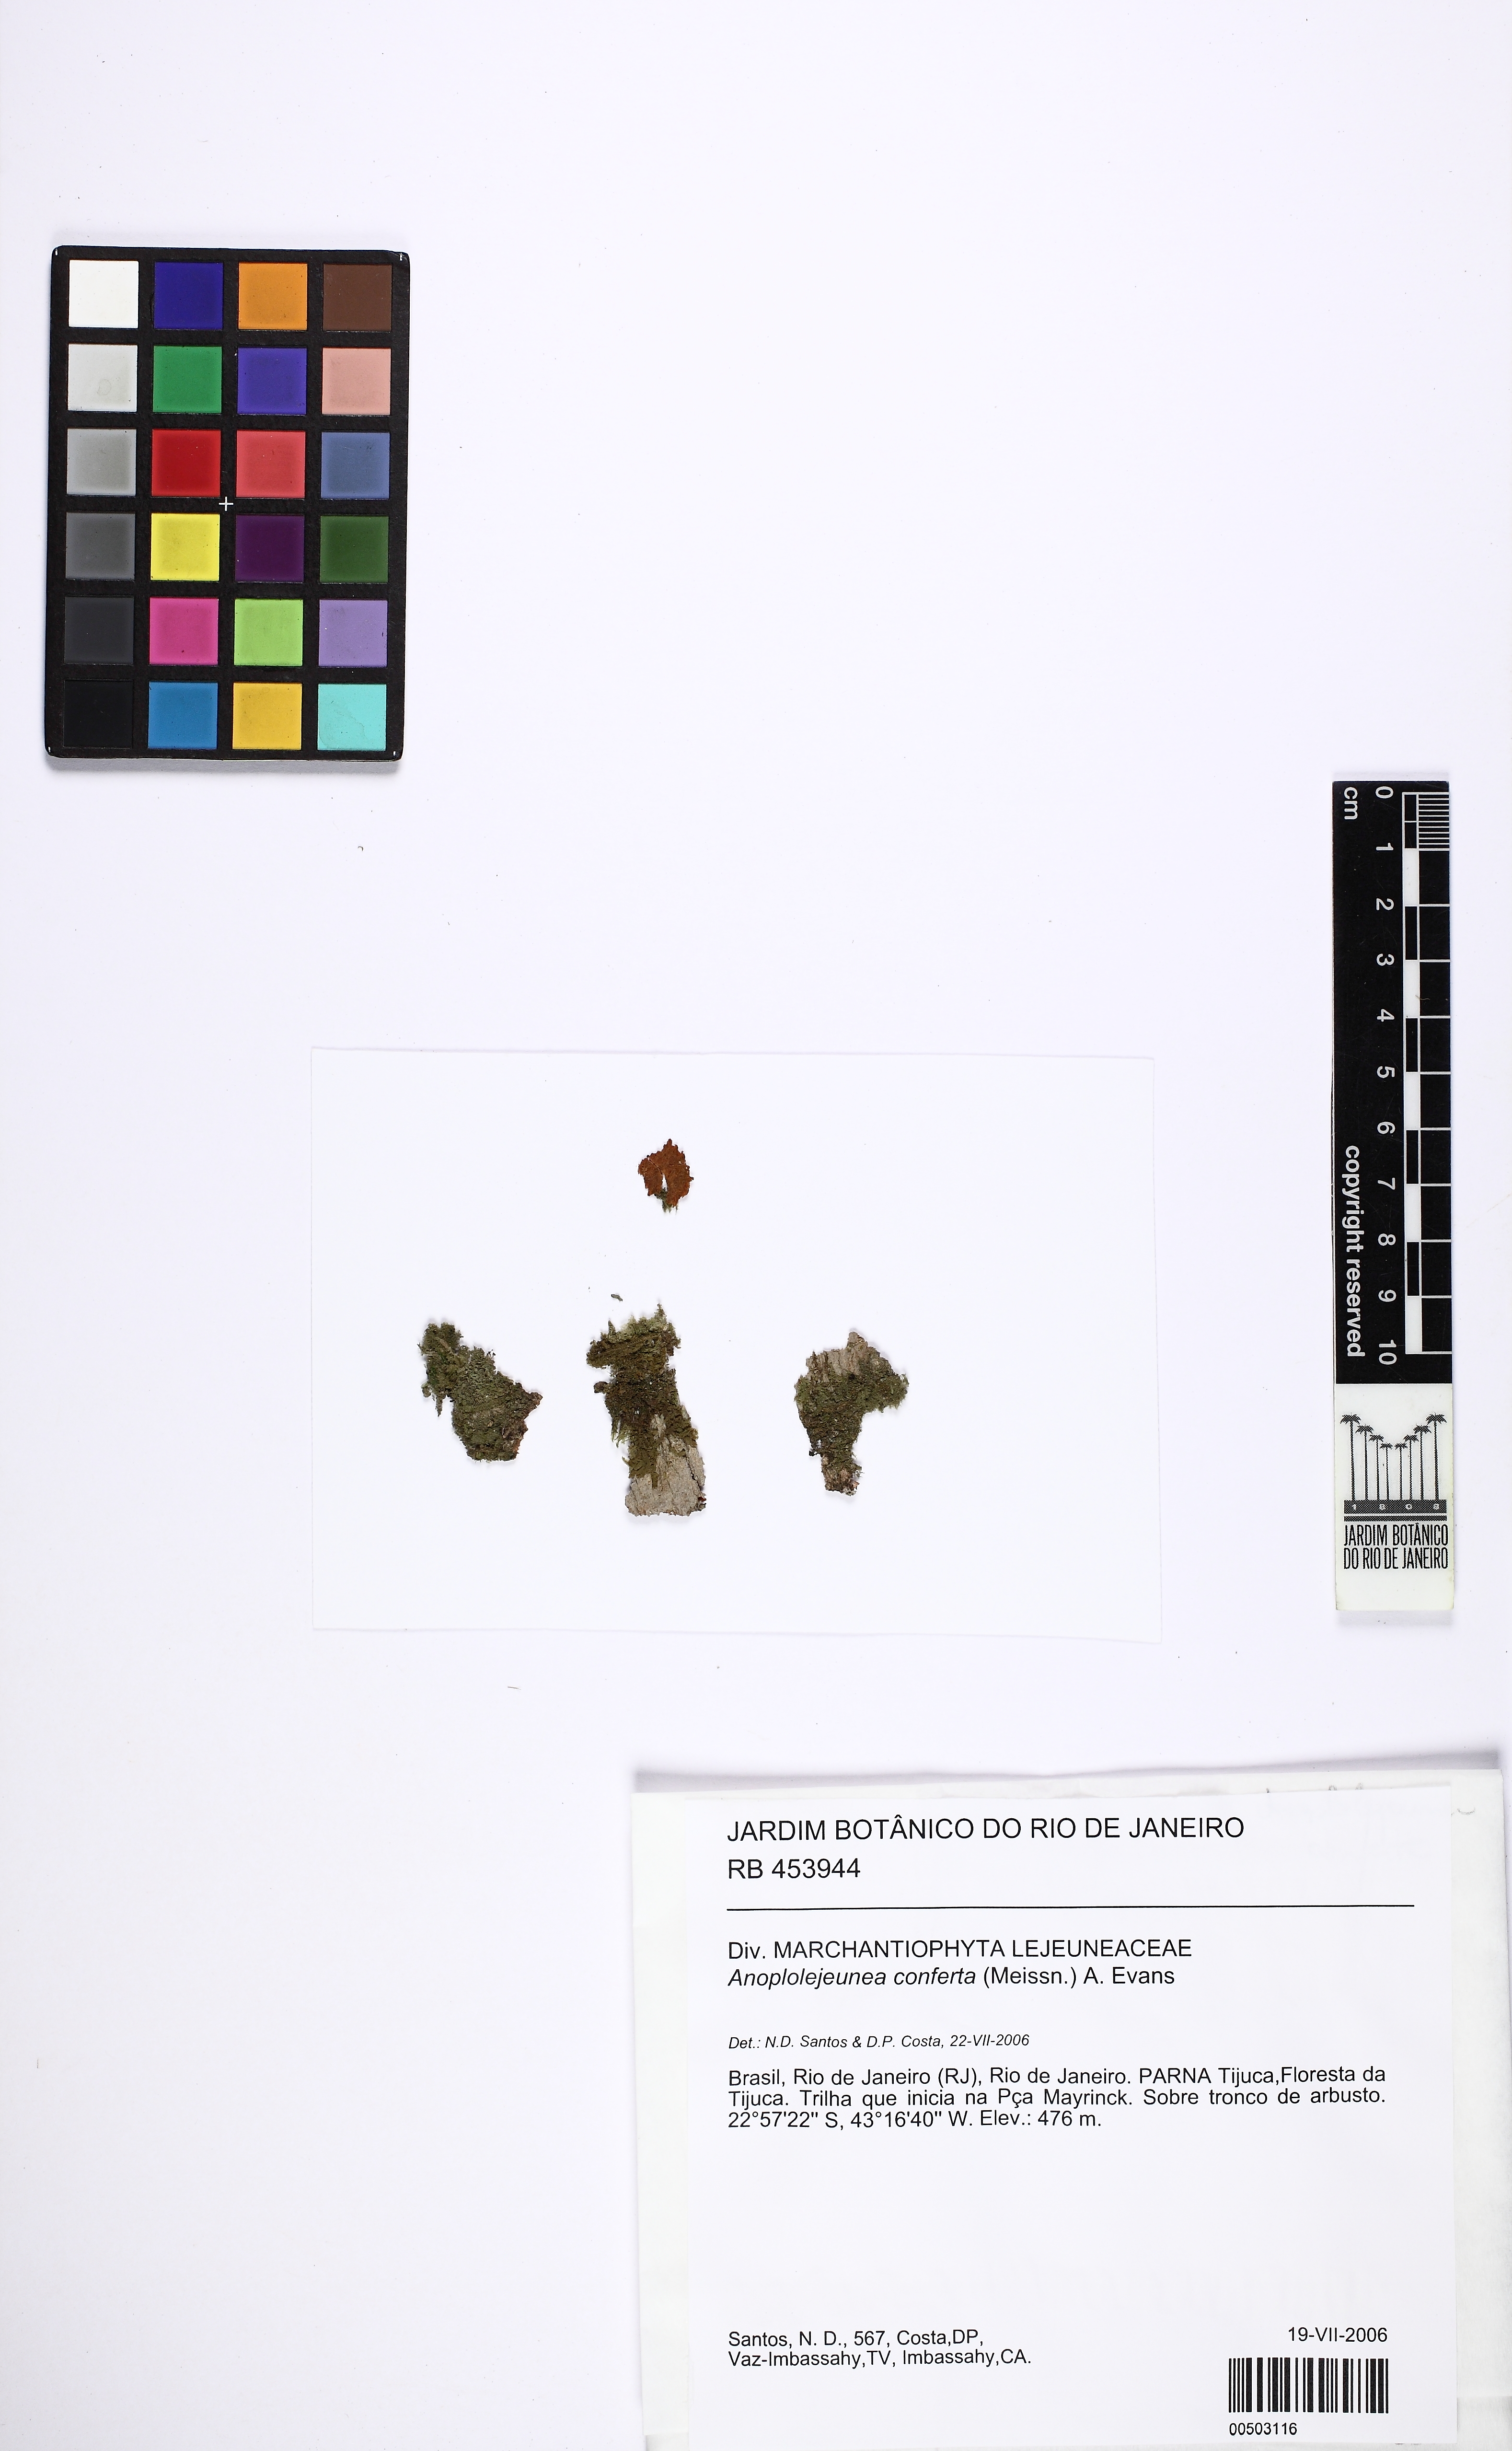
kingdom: Plantae
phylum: Marchantiophyta
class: Jungermanniopsida
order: Porellales
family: Lejeuneaceae
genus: Anoplolejeunea
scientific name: Anoplolejeunea conferta
